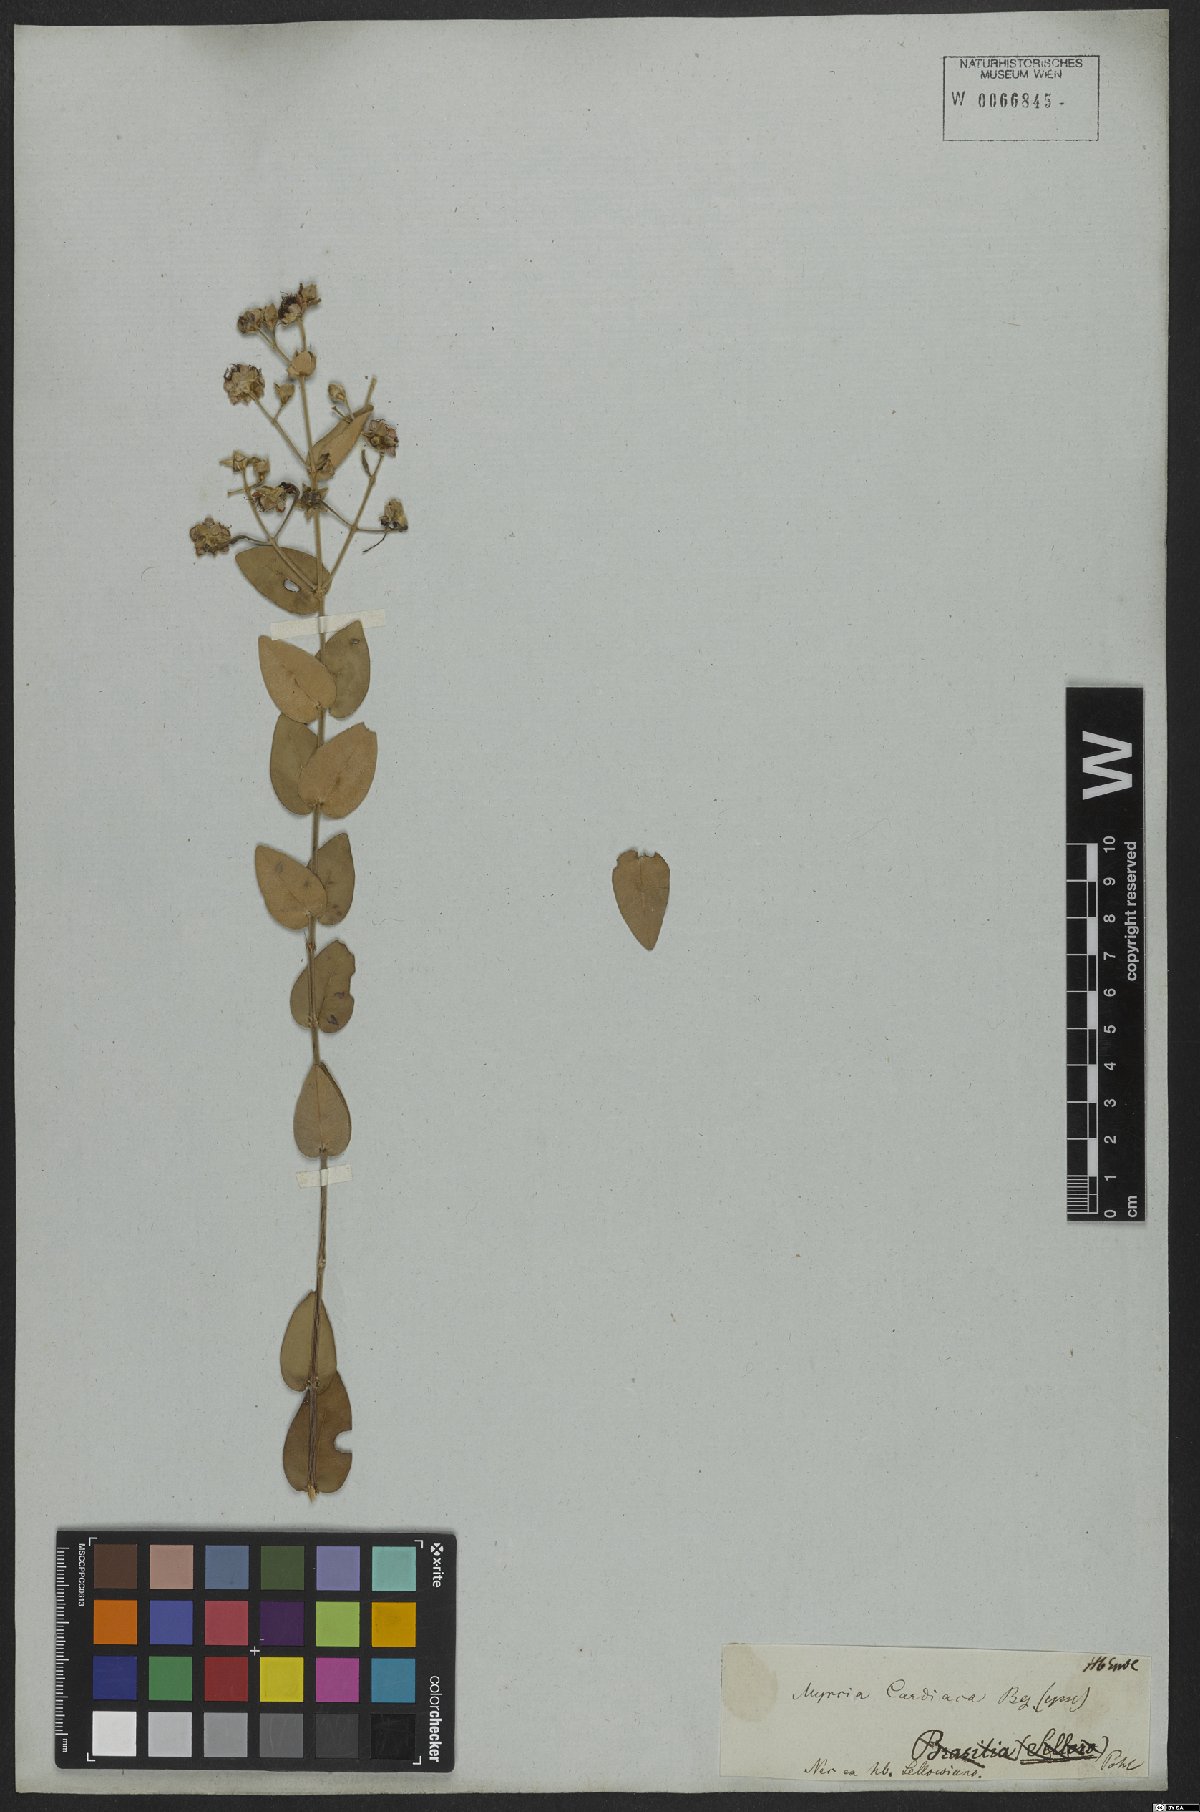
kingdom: Plantae
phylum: Tracheophyta
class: Magnoliopsida
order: Myrtales
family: Myrtaceae
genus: Myrcia
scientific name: Myrcia cardiaca
